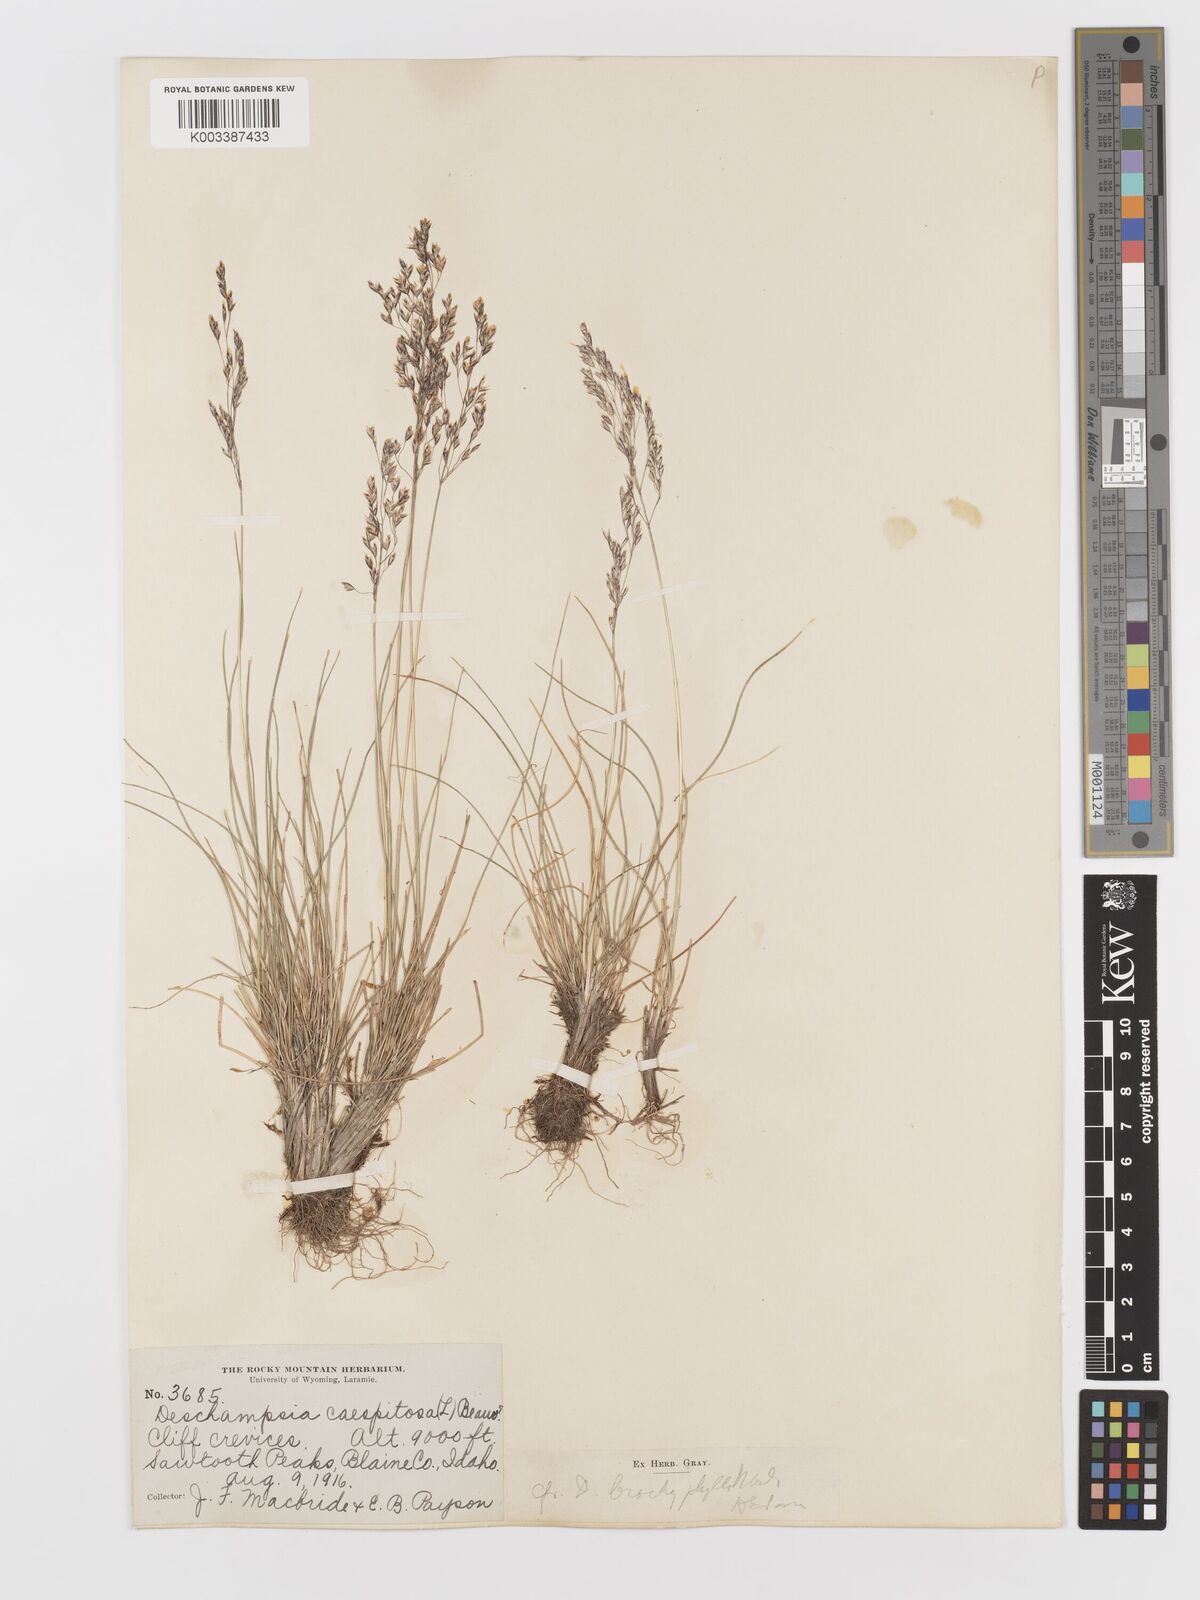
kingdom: Plantae
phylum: Tracheophyta
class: Liliopsida
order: Poales
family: Poaceae
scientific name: Poaceae
